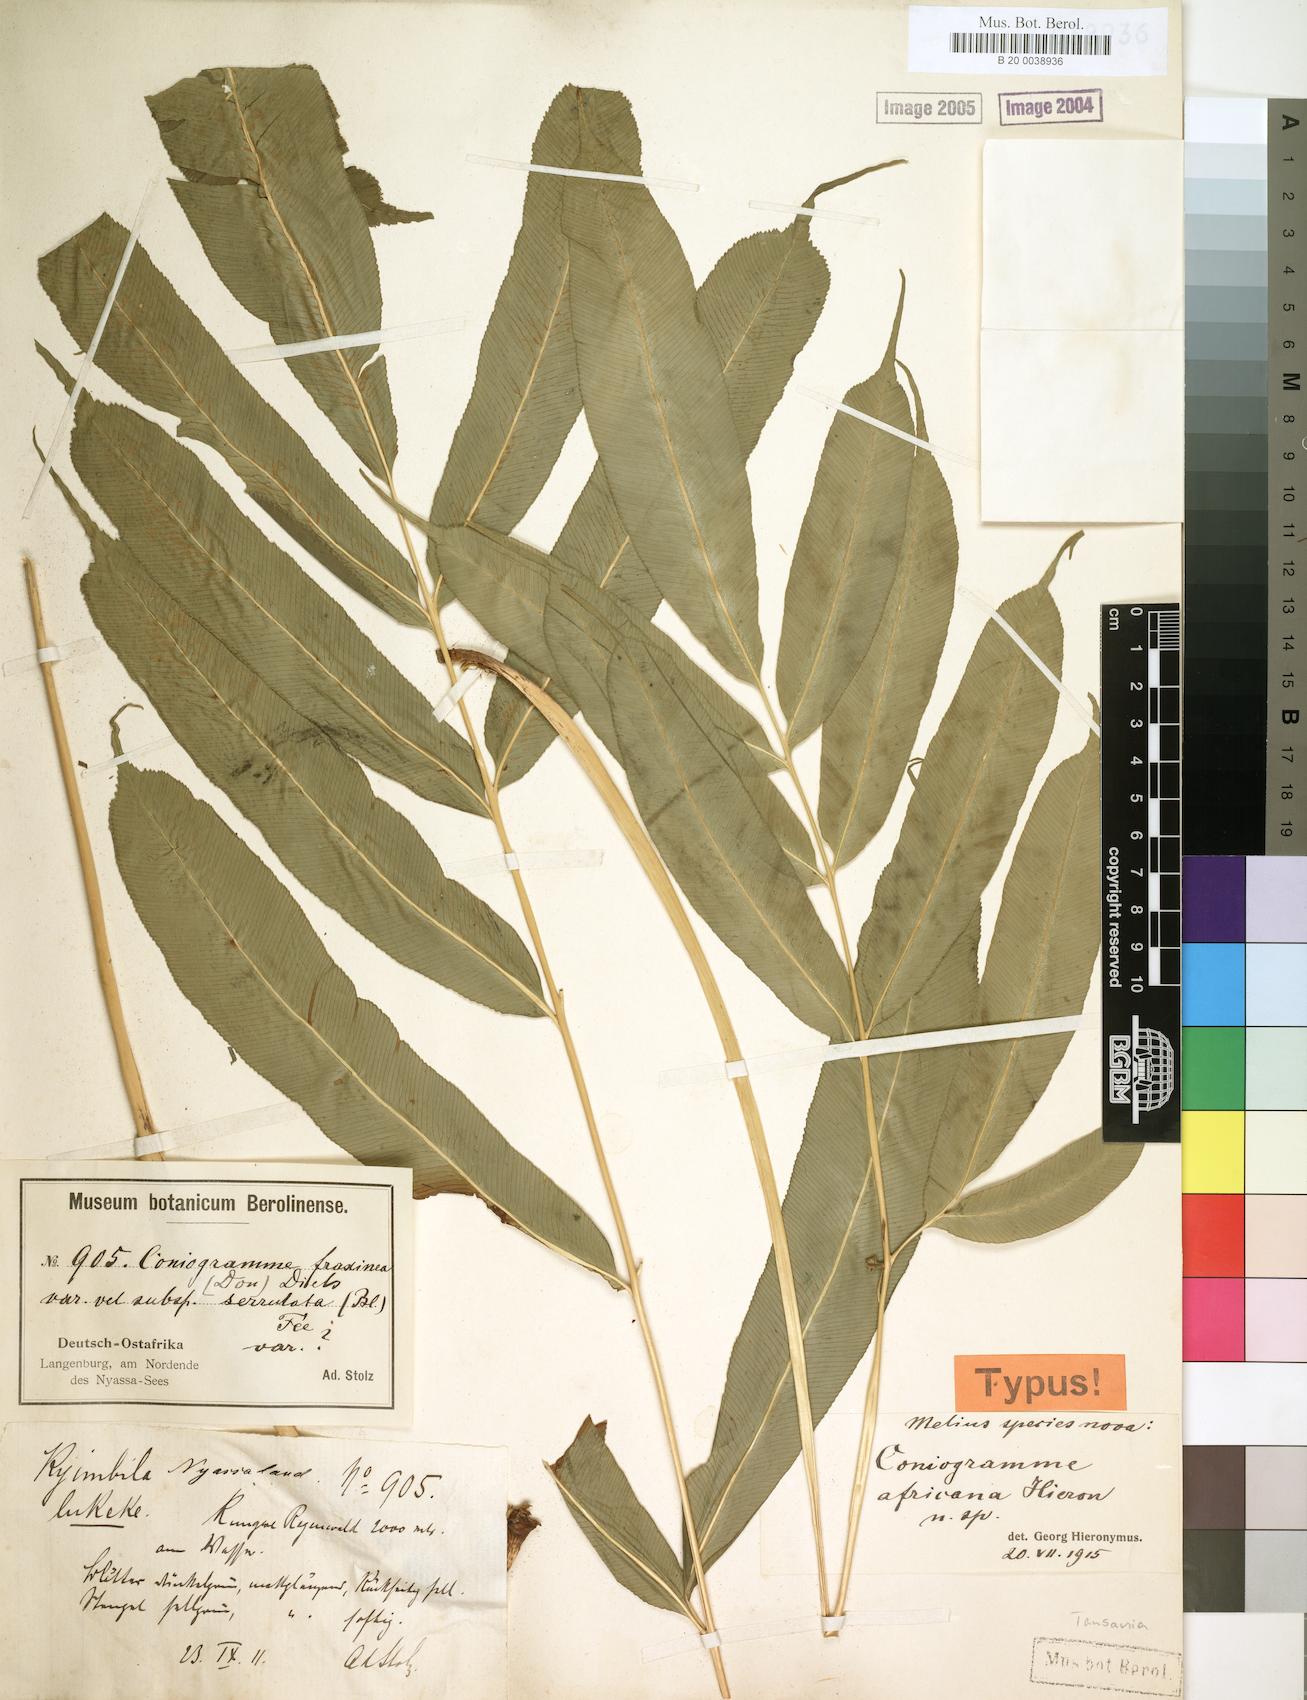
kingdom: Plantae
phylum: Tracheophyta
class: Polypodiopsida
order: Polypodiales
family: Pteridaceae
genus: Coniogramme
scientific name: Coniogramme africana
